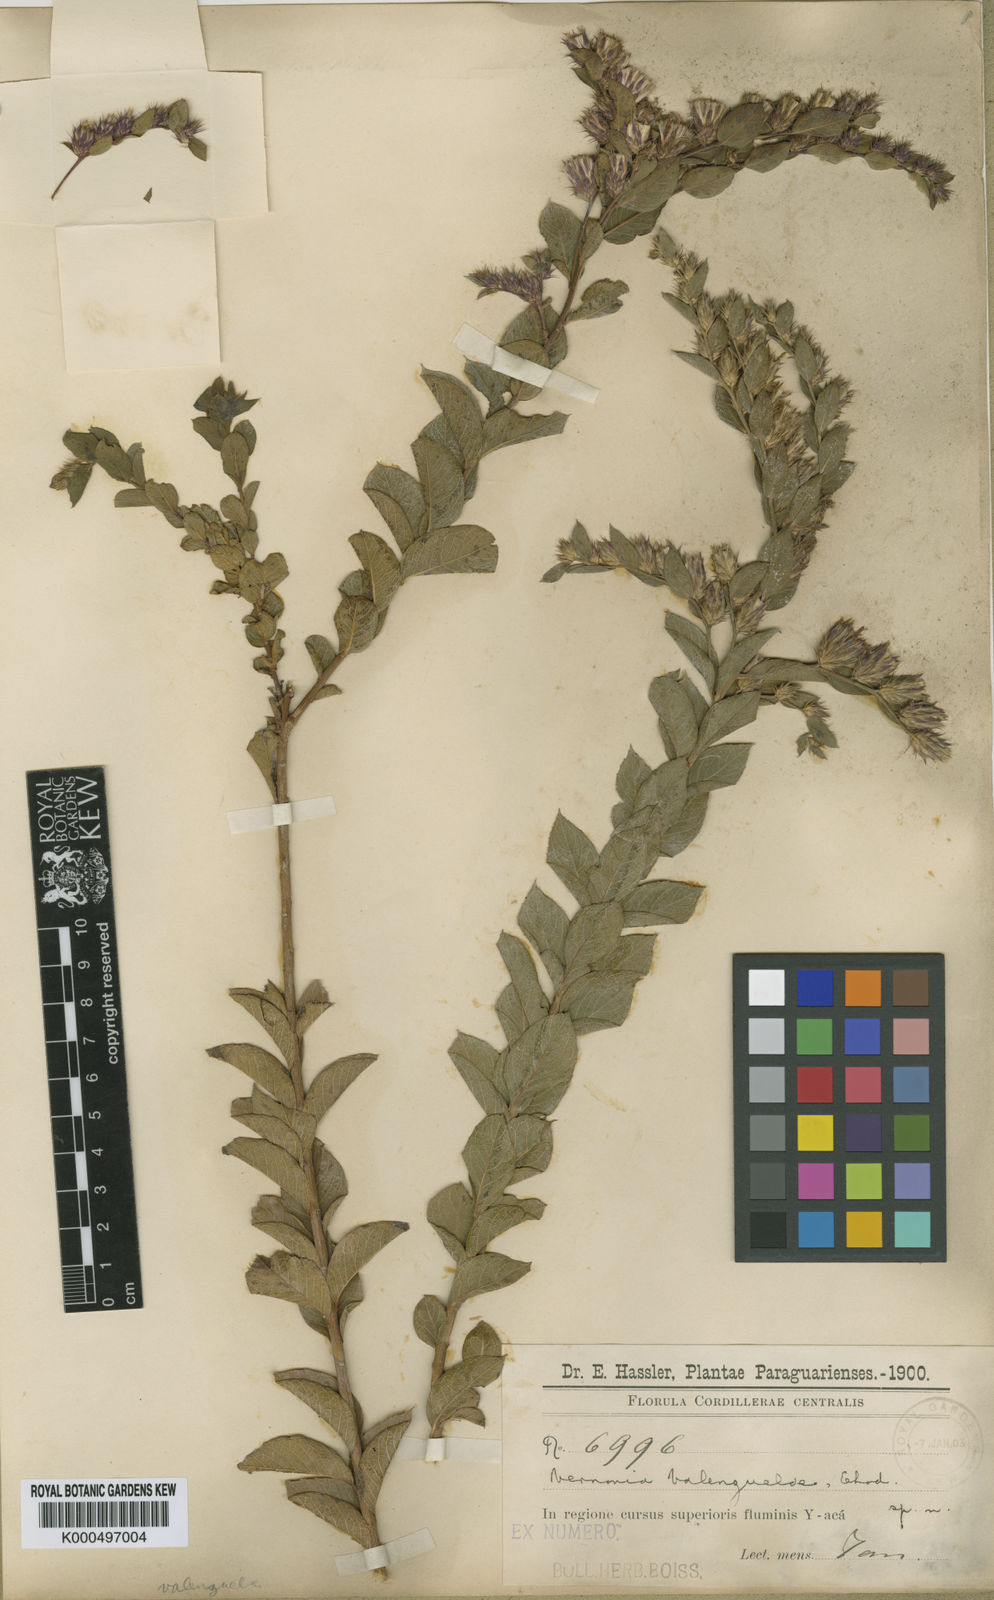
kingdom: Plantae
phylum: Tracheophyta
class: Magnoliopsida
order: Asterales
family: Asteraceae
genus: Lessingianthus
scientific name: Lessingianthus valenzuelae
